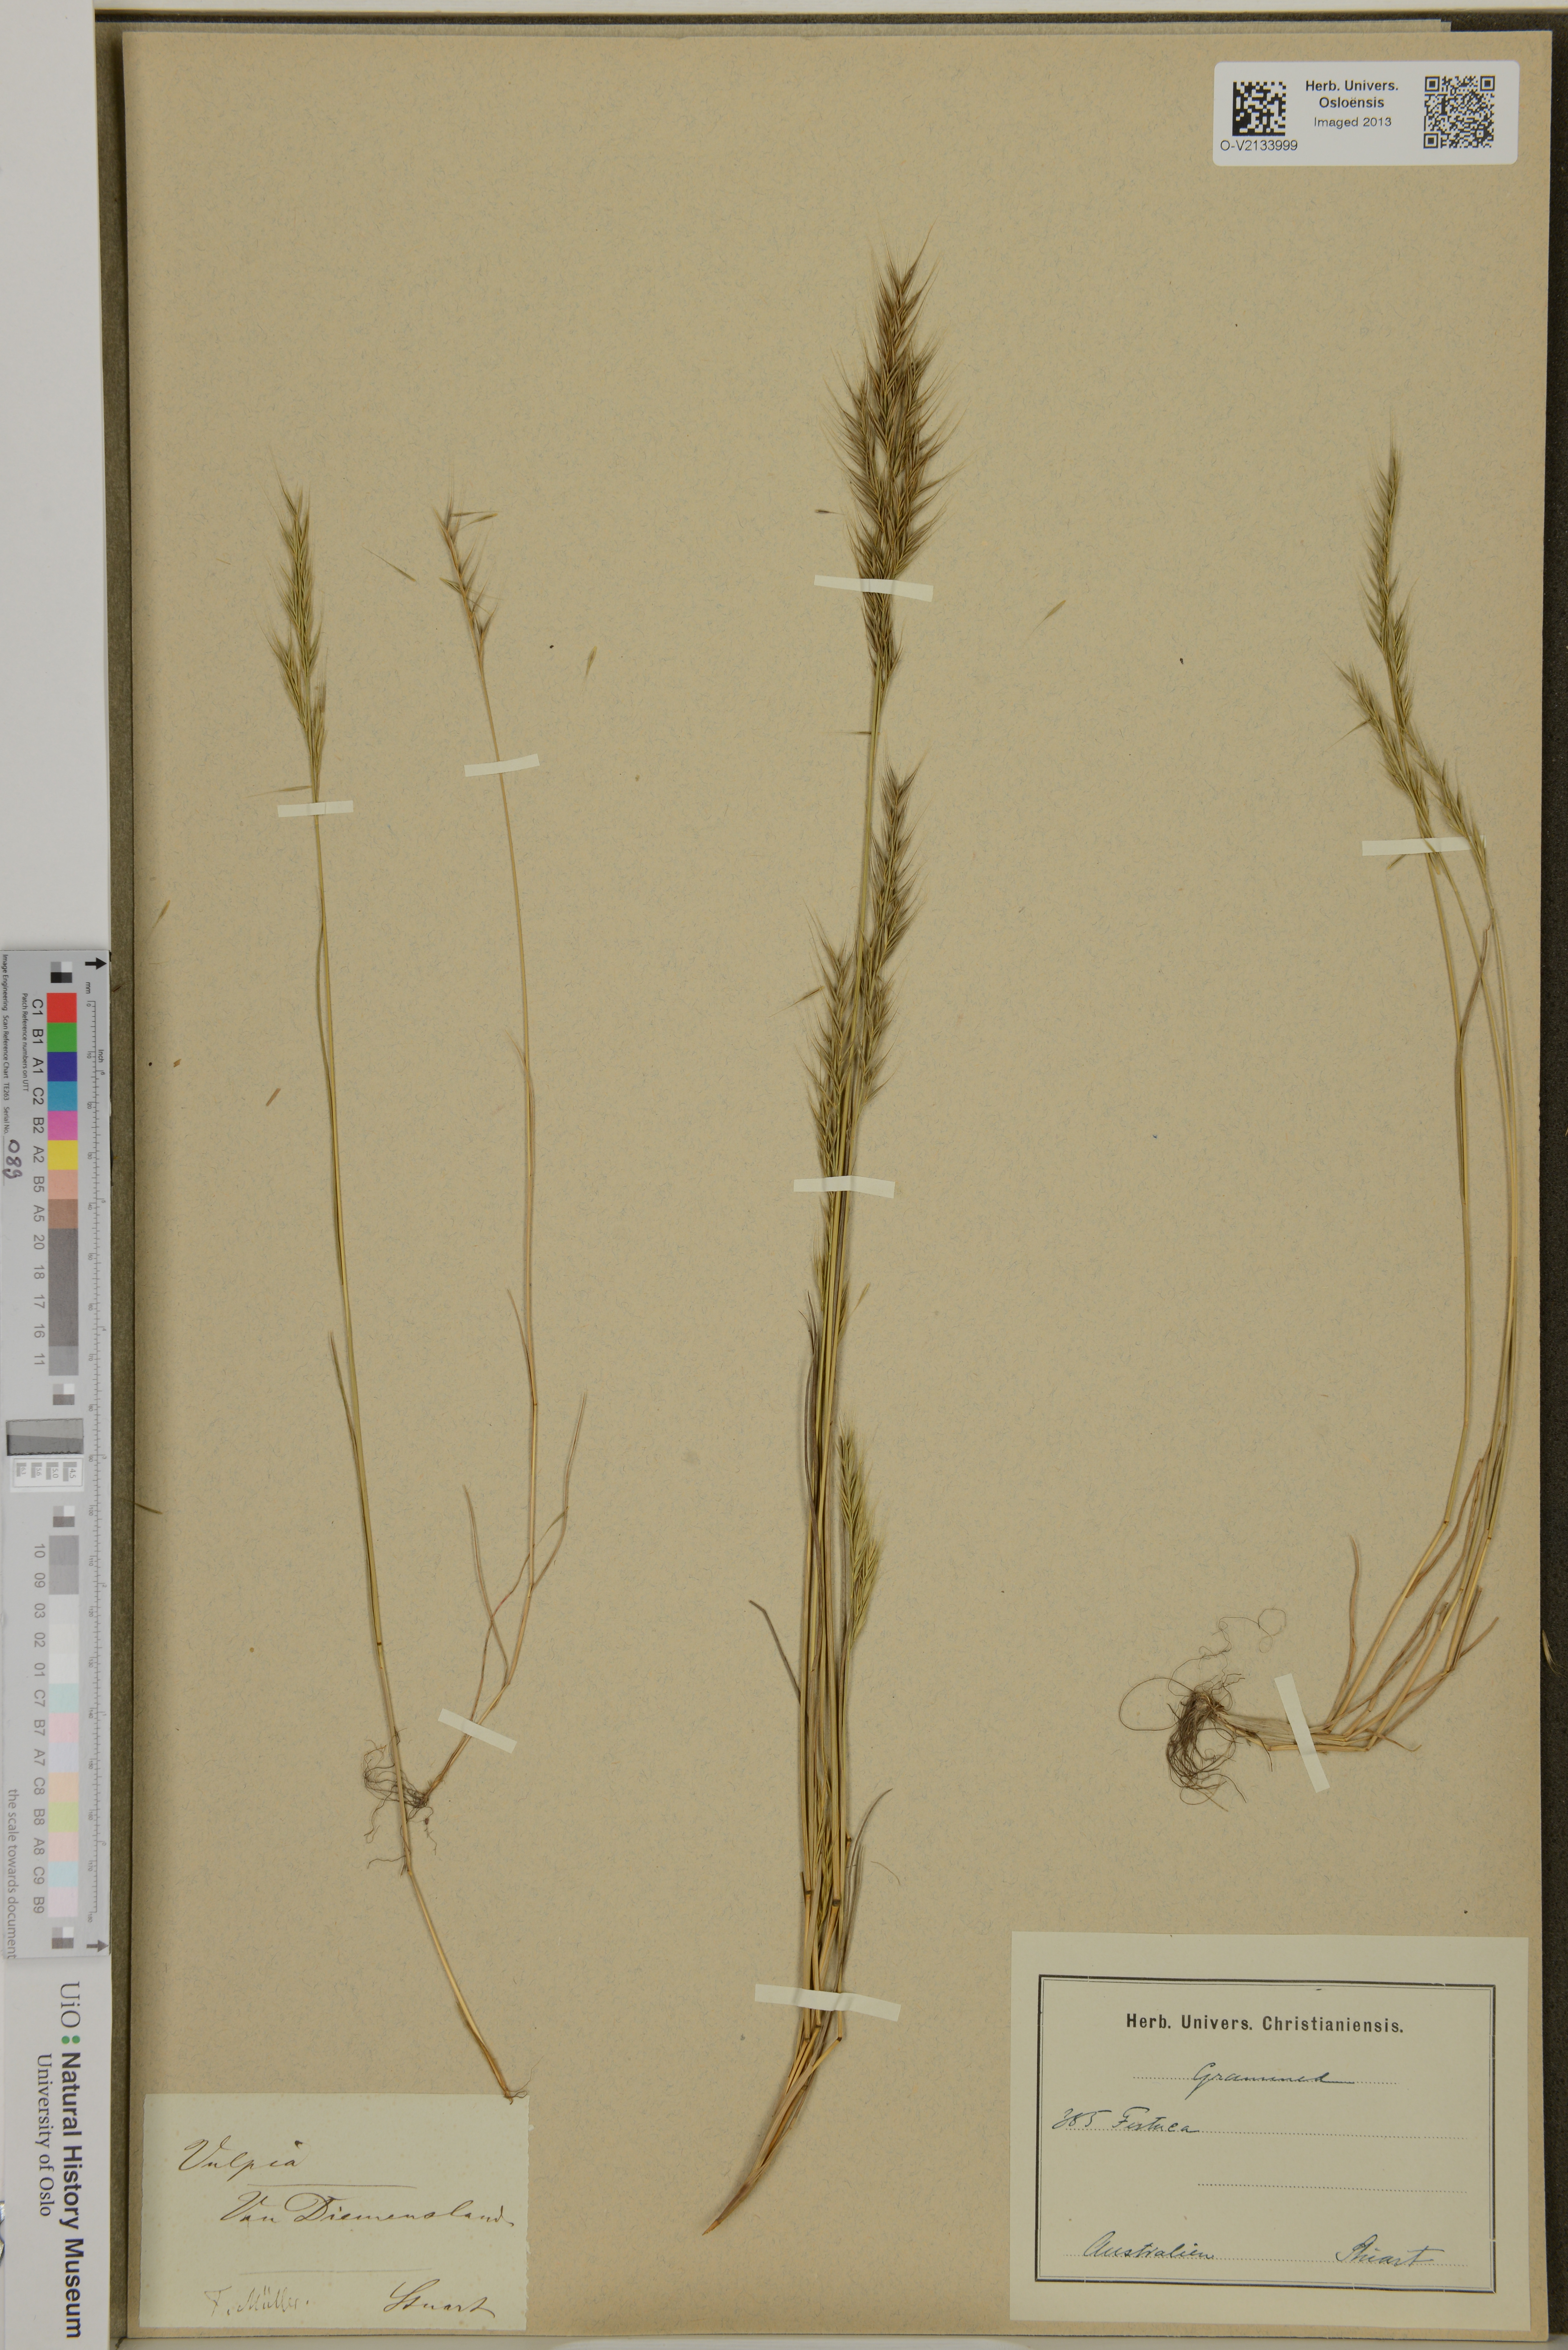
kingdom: Plantae
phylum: Tracheophyta
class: Liliopsida
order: Poales
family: Poaceae
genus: Festuca
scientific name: Festuca
